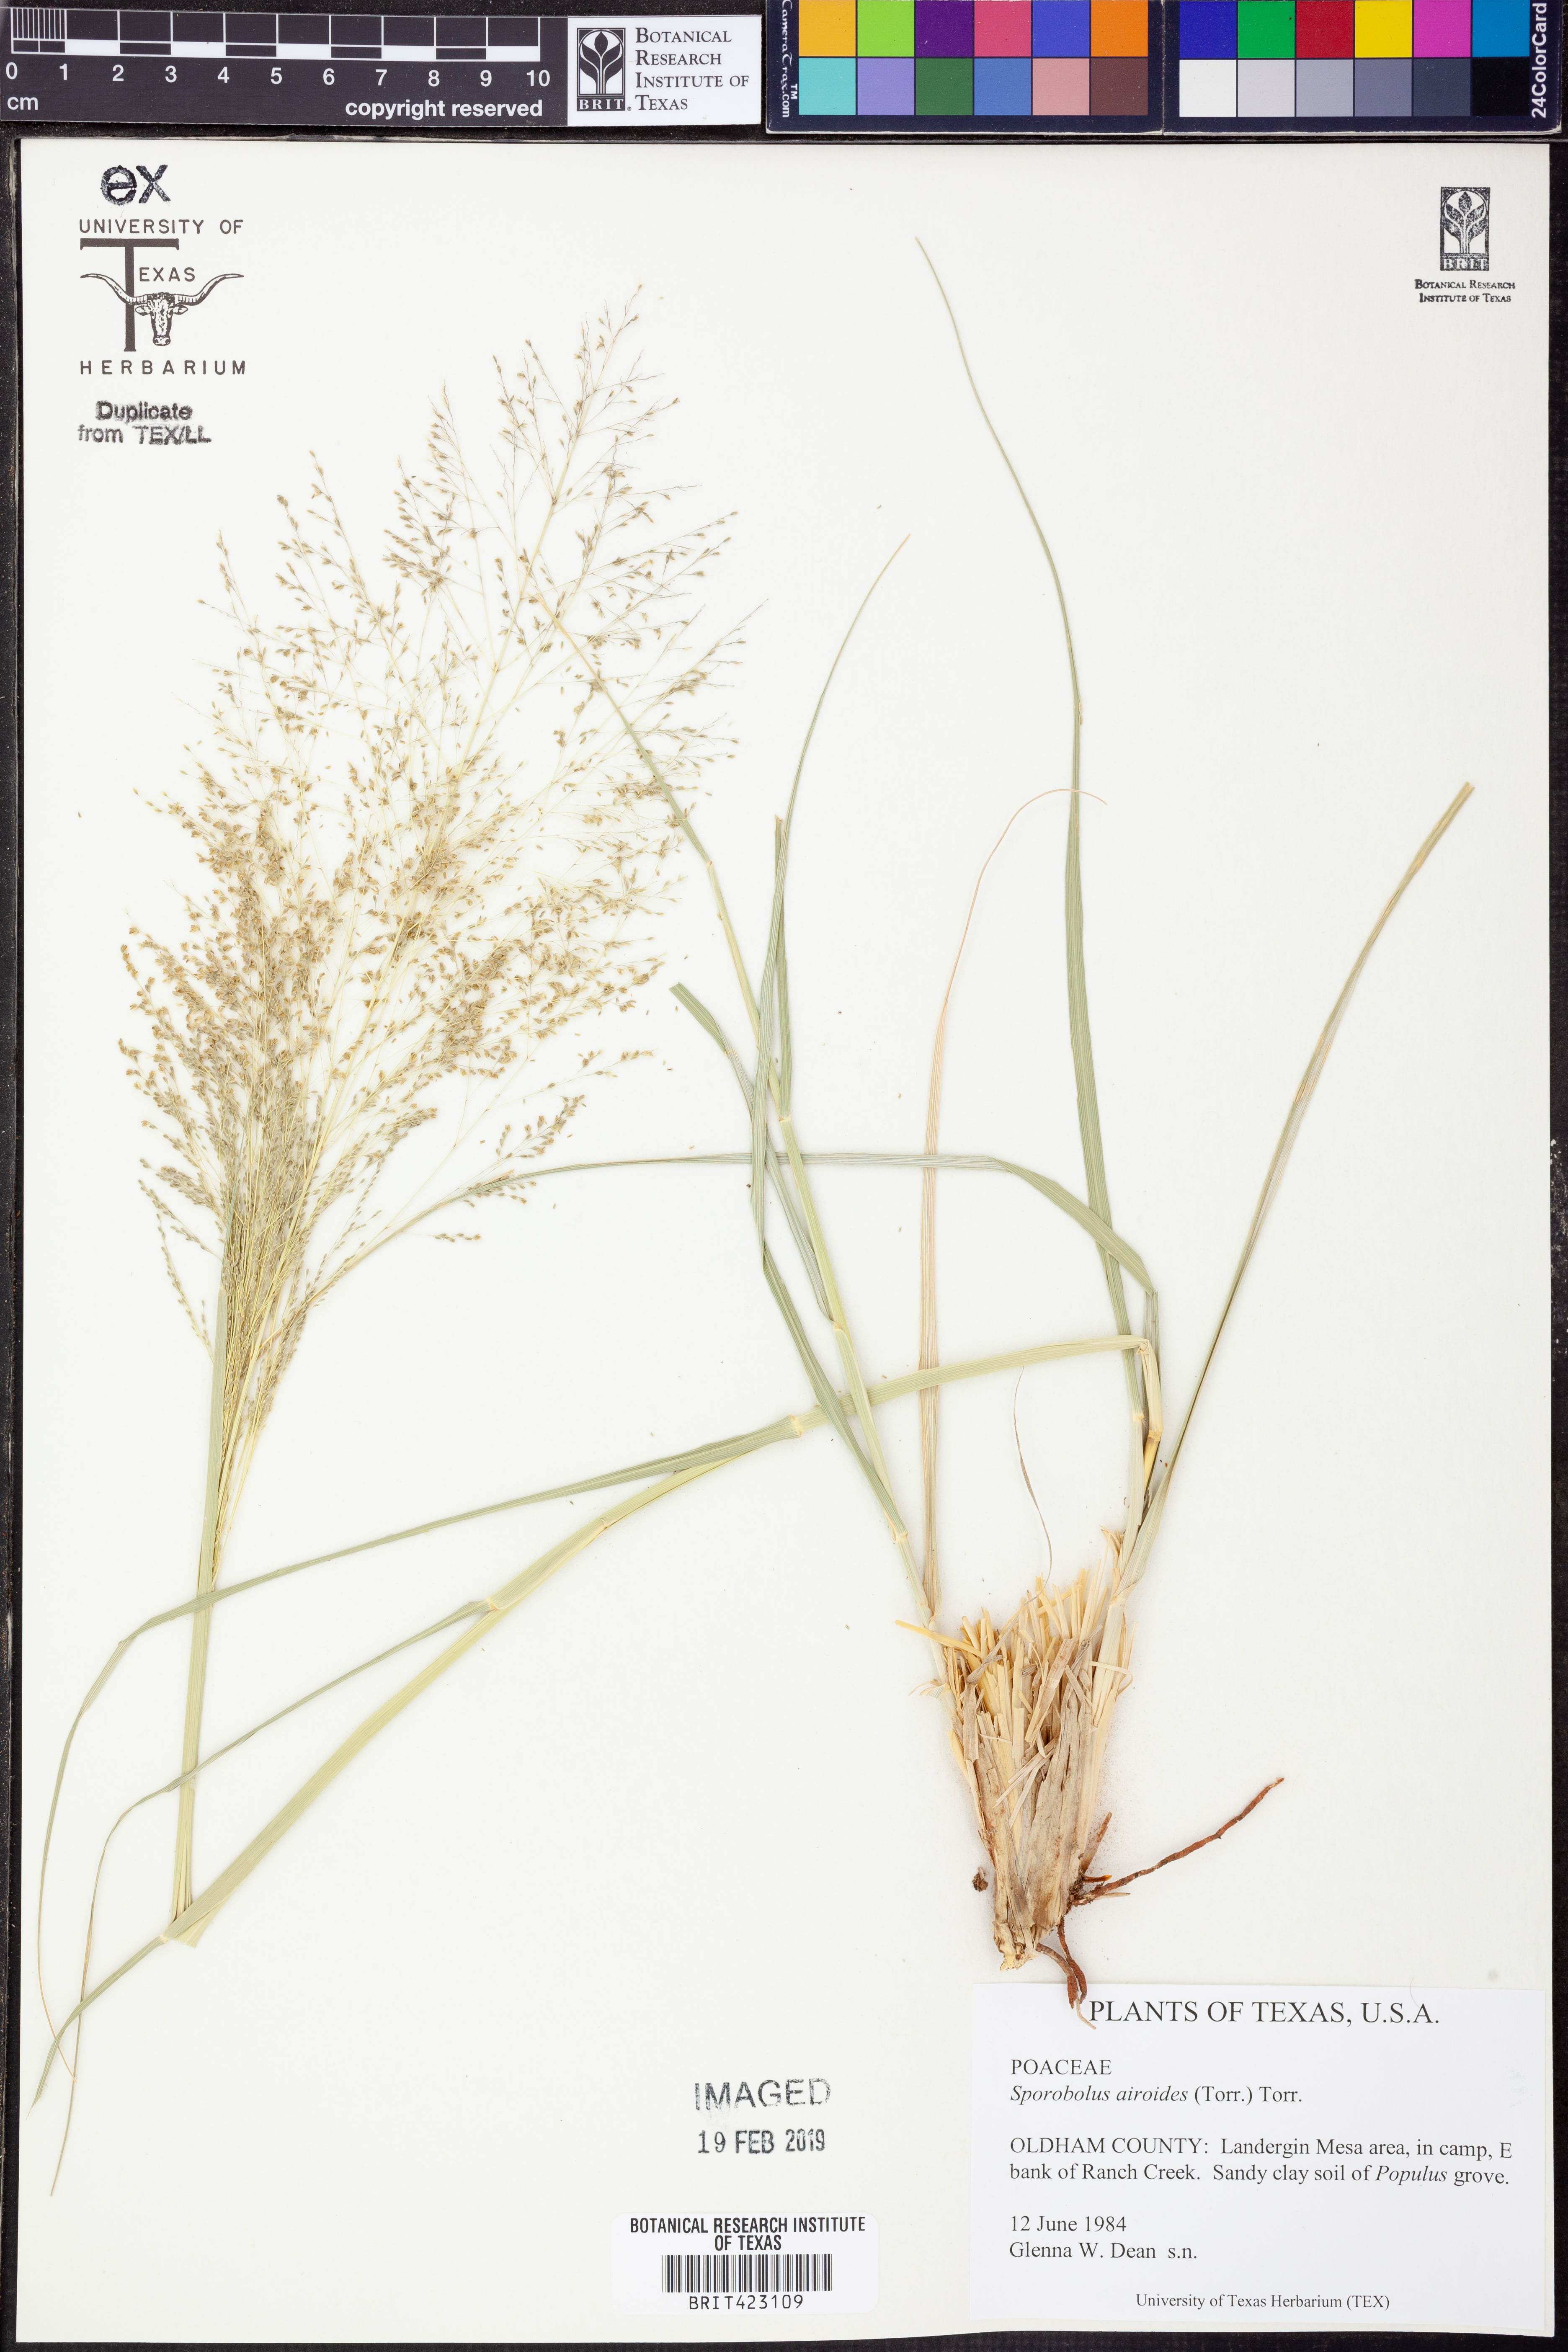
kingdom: Plantae
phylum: Tracheophyta
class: Liliopsida
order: Poales
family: Poaceae
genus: Sporobolus
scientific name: Sporobolus airoides
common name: Alkali sacaton
